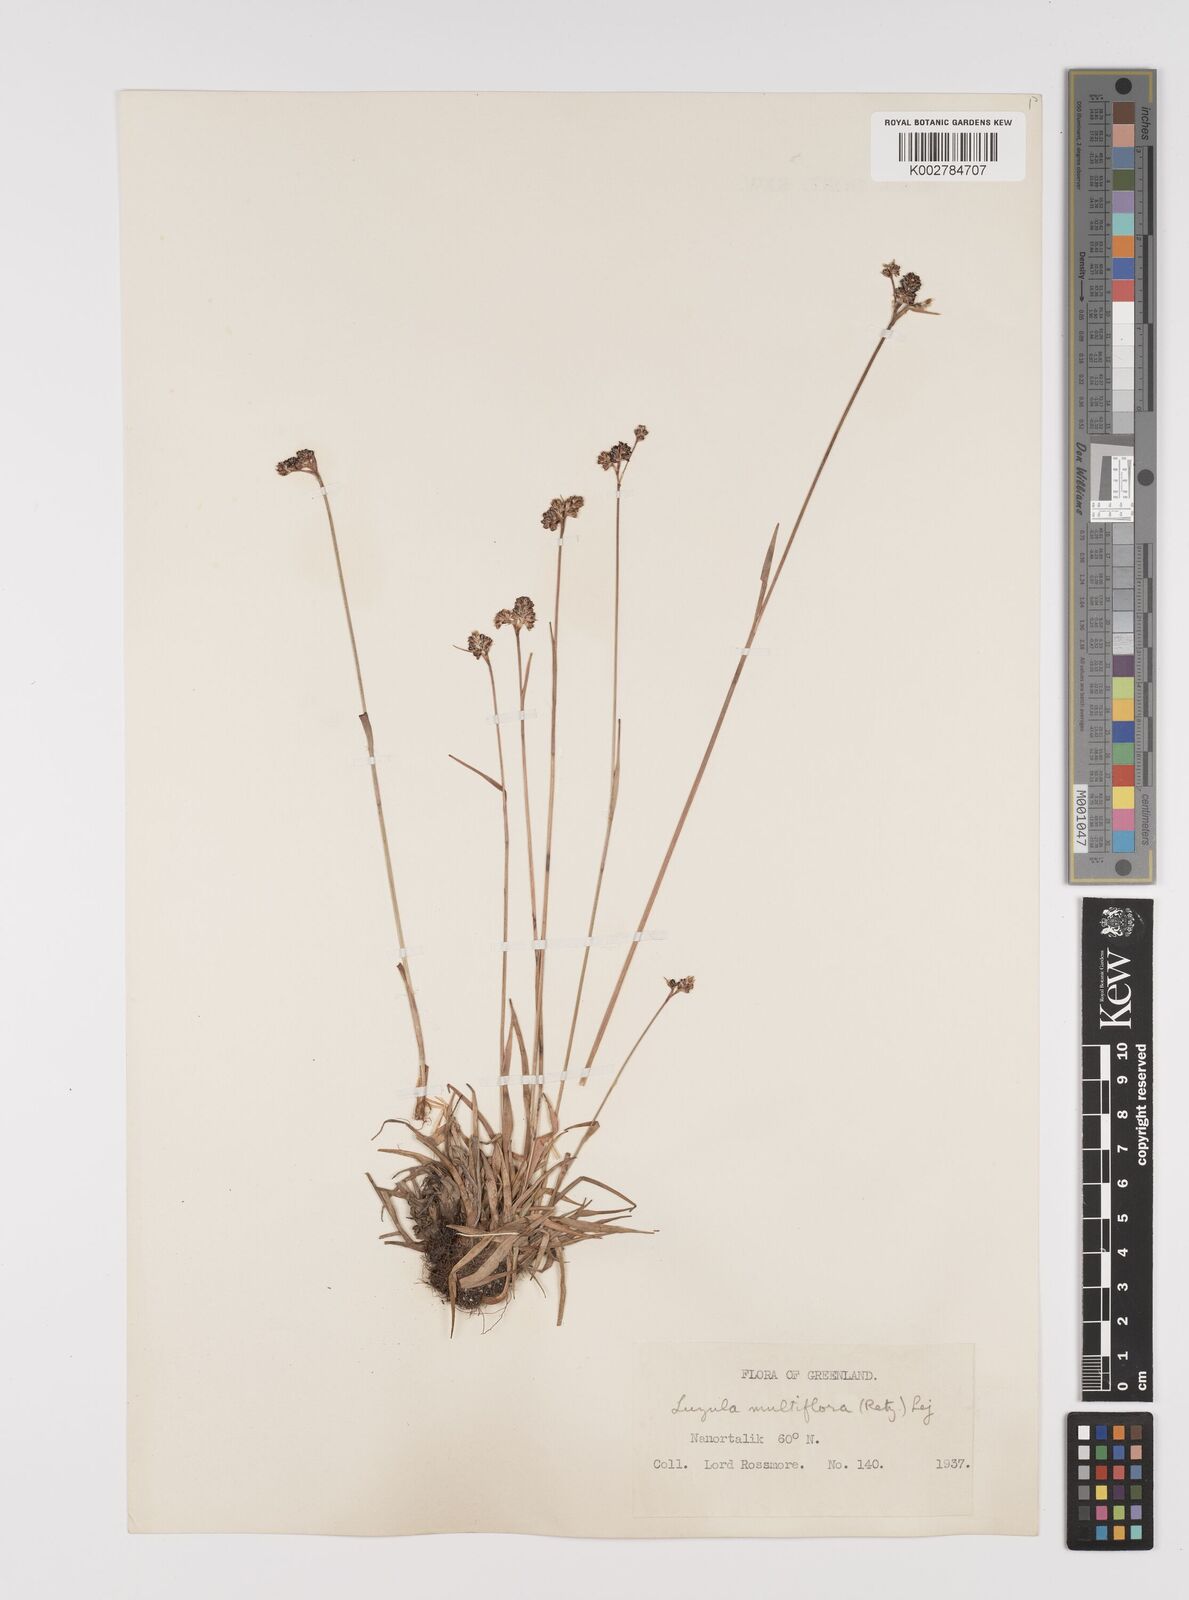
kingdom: Plantae
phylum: Tracheophyta
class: Liliopsida
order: Poales
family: Juncaceae
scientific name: Juncaceae
